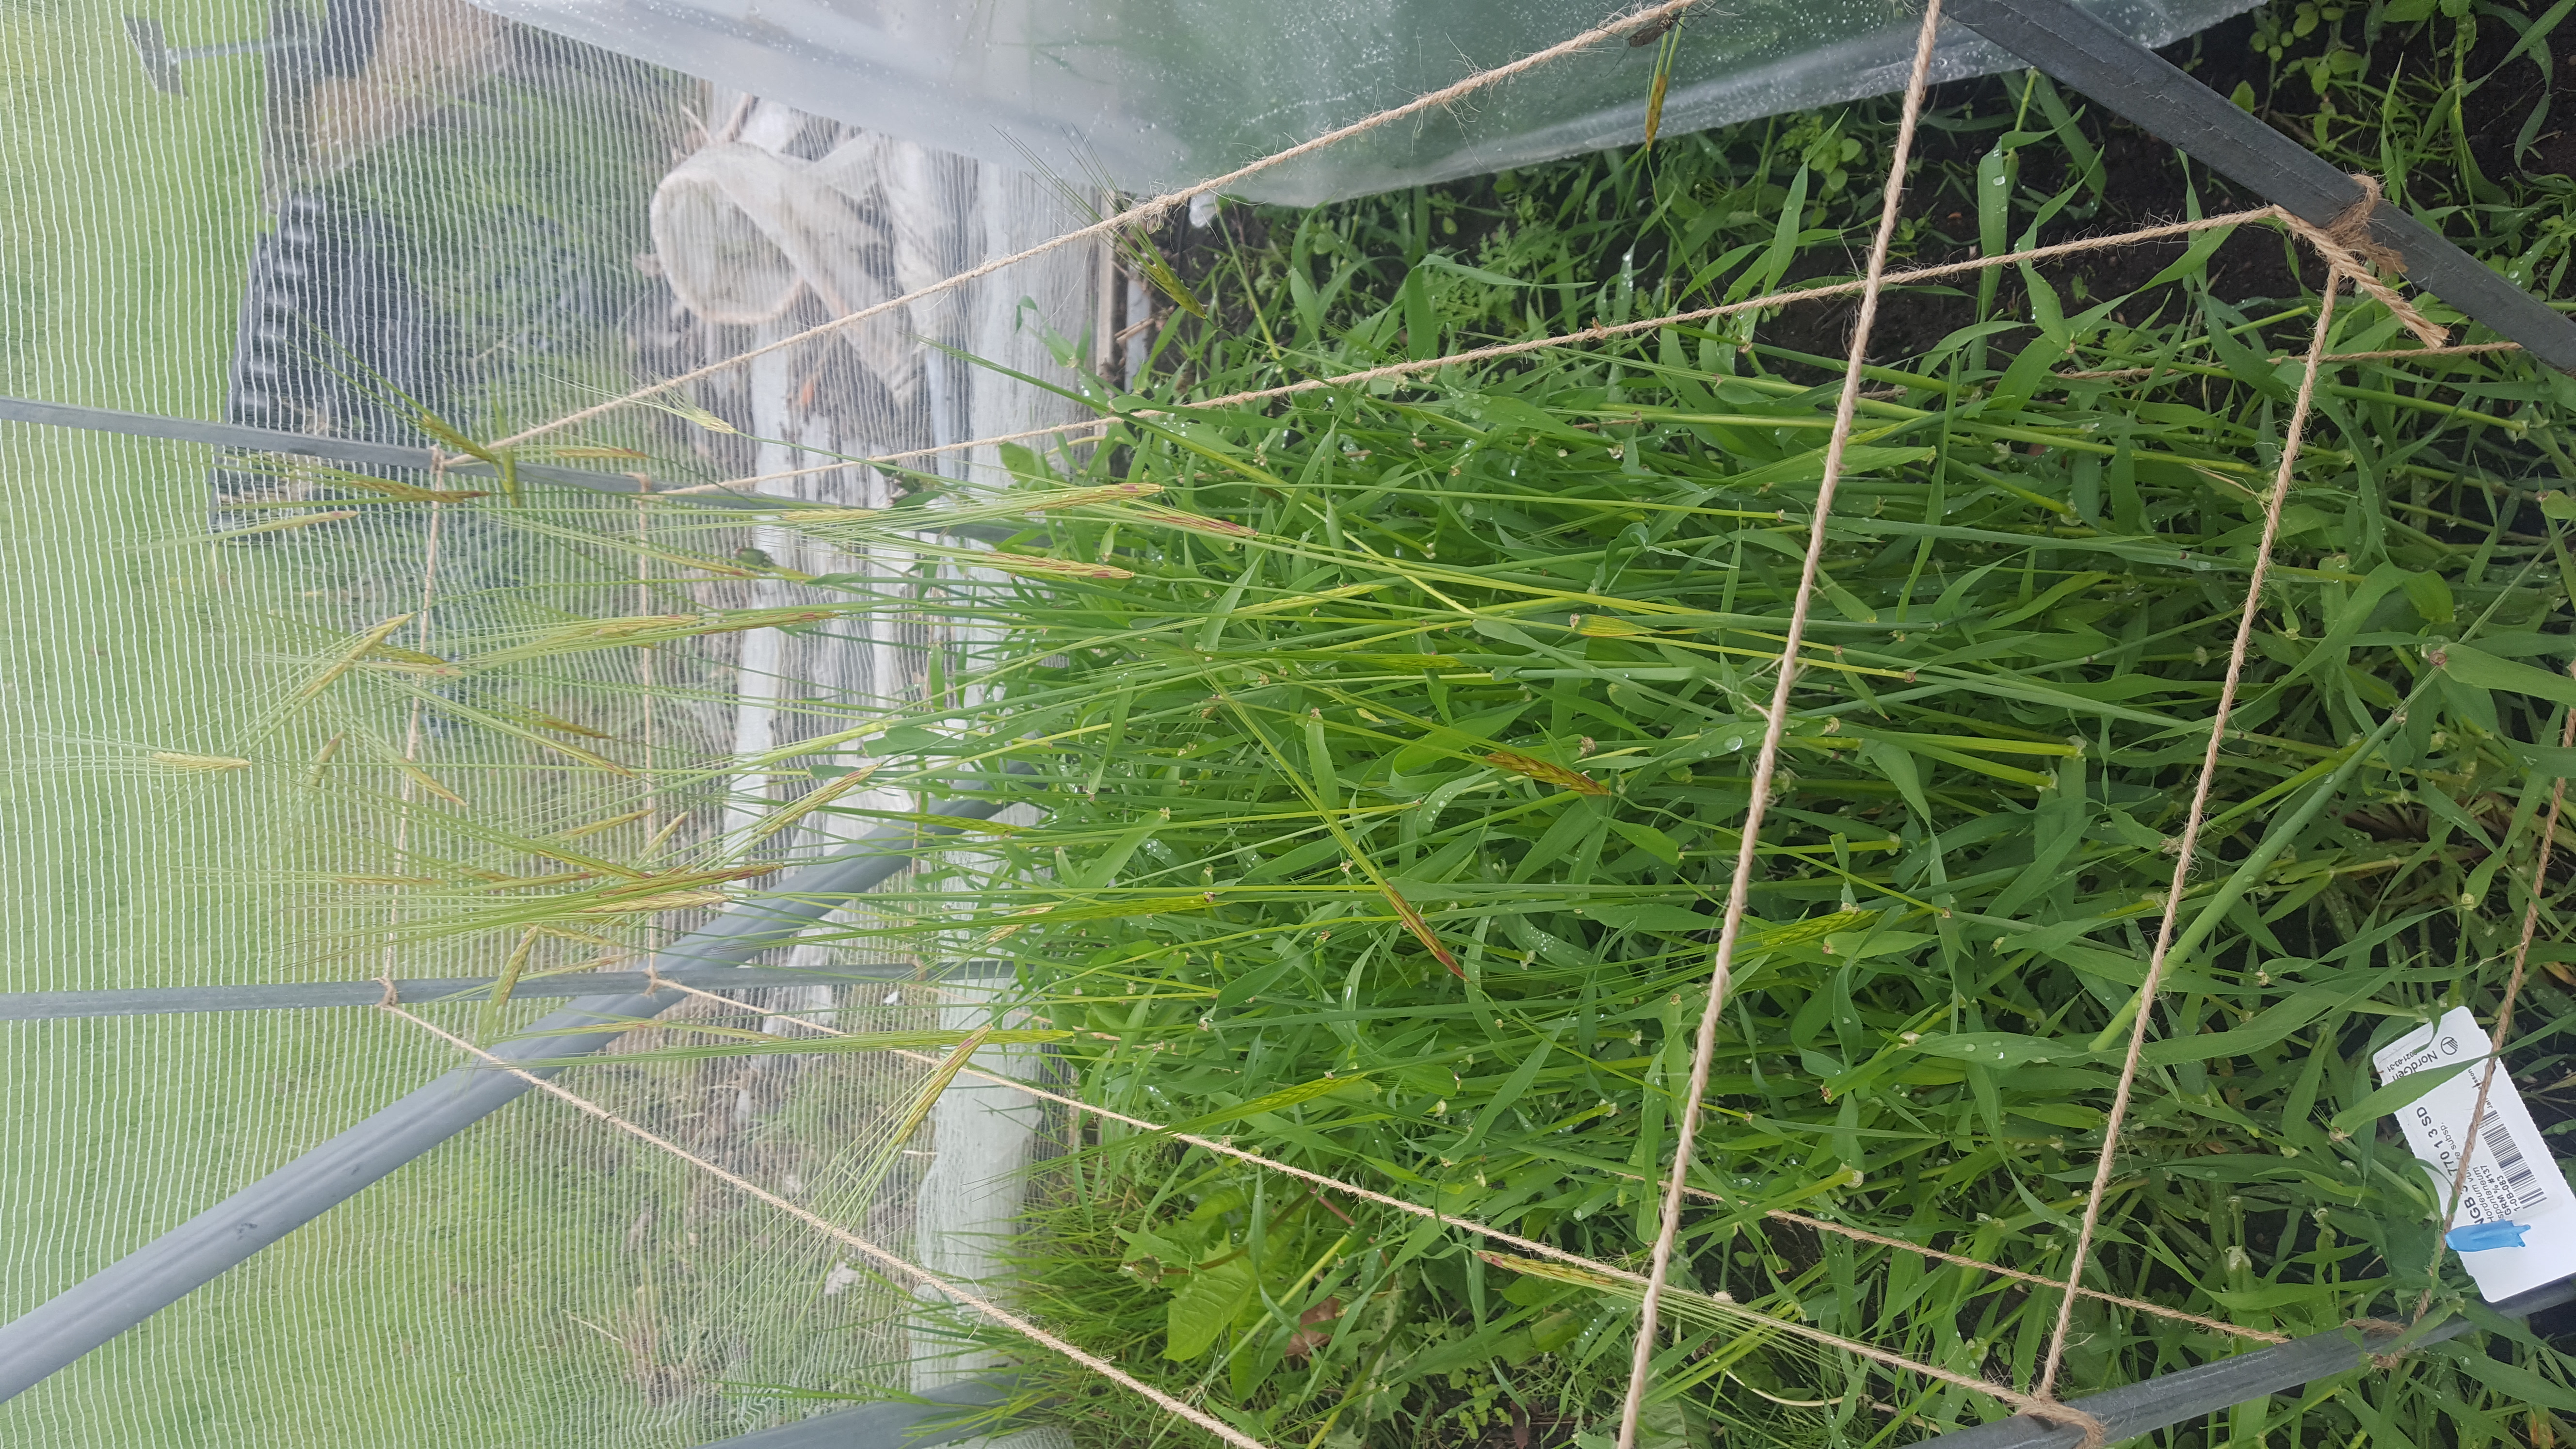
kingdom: Plantae
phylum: Tracheophyta
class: Liliopsida
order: Poales
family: Poaceae
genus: Hordeum
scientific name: Hordeum spontaneum
